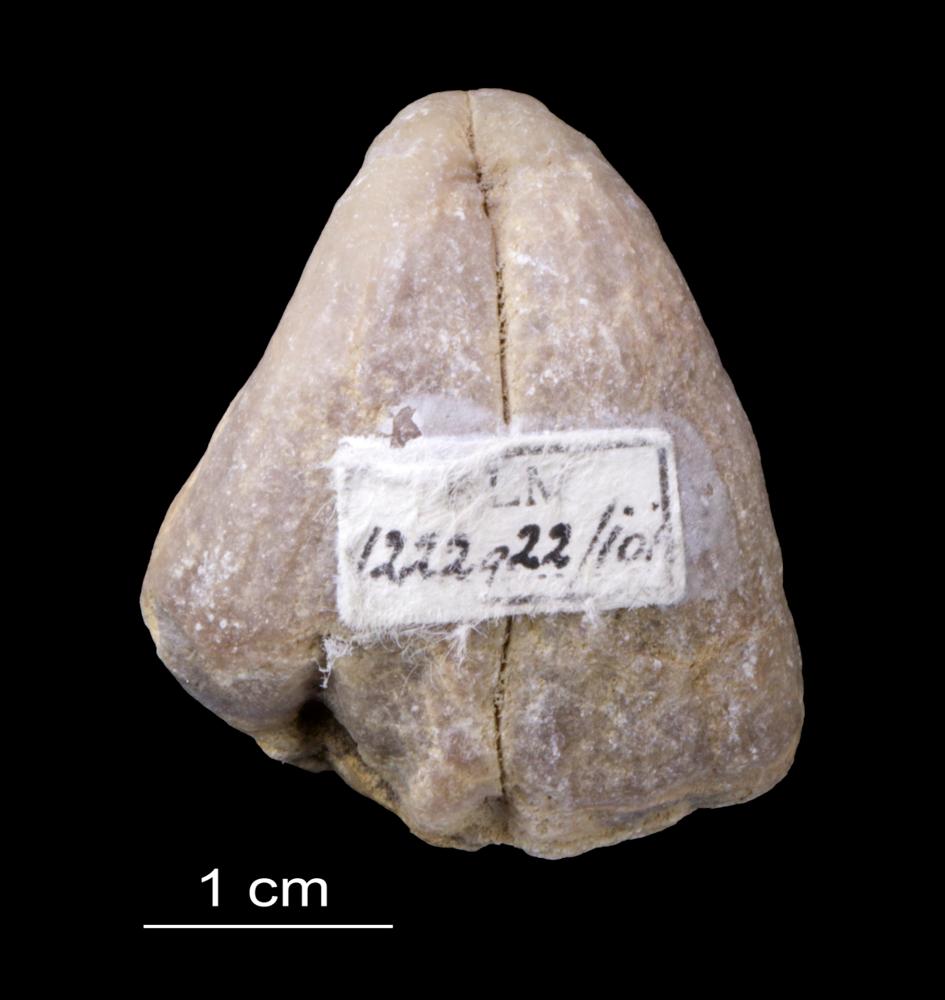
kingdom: Animalia
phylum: Brachiopoda
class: Rhynchonellata
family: Pentameridae
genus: Pentamerus
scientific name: Pentamerus
